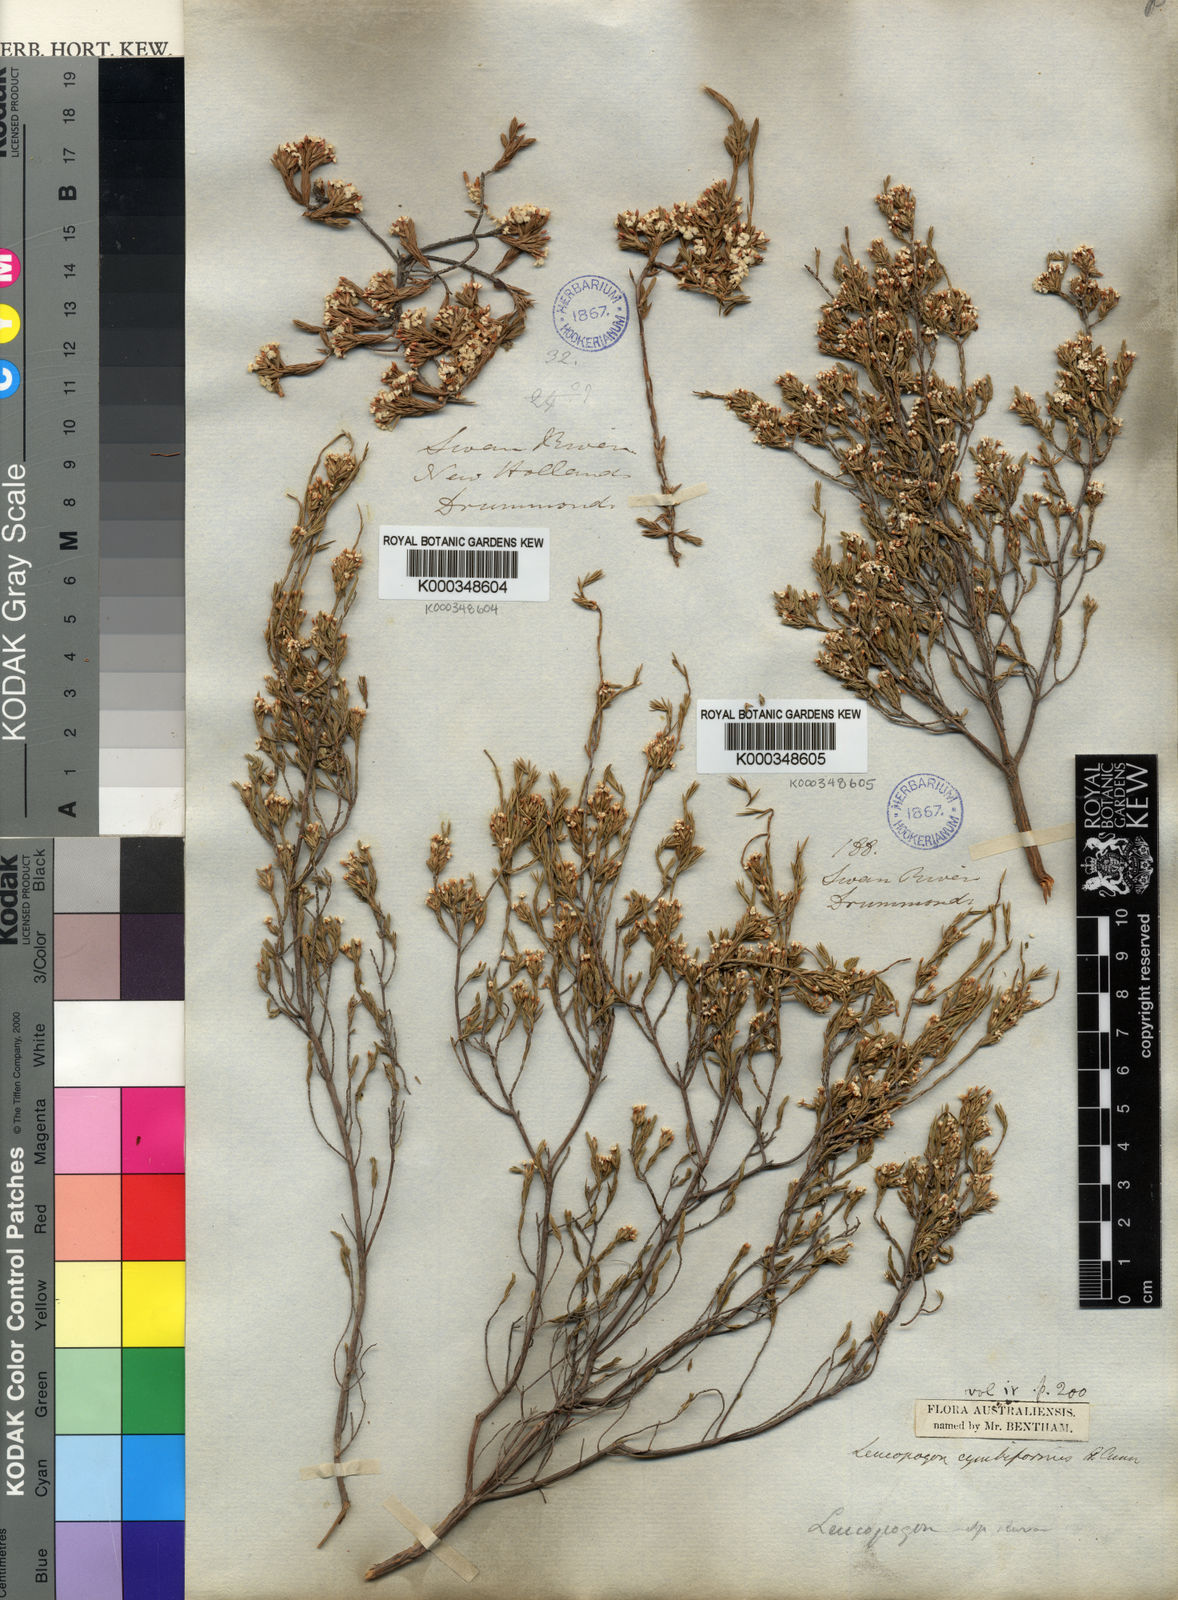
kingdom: Plantae
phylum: Tracheophyta
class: Magnoliopsida
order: Ericales
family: Ericaceae
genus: Styphelia
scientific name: Styphelia cymbiformis
